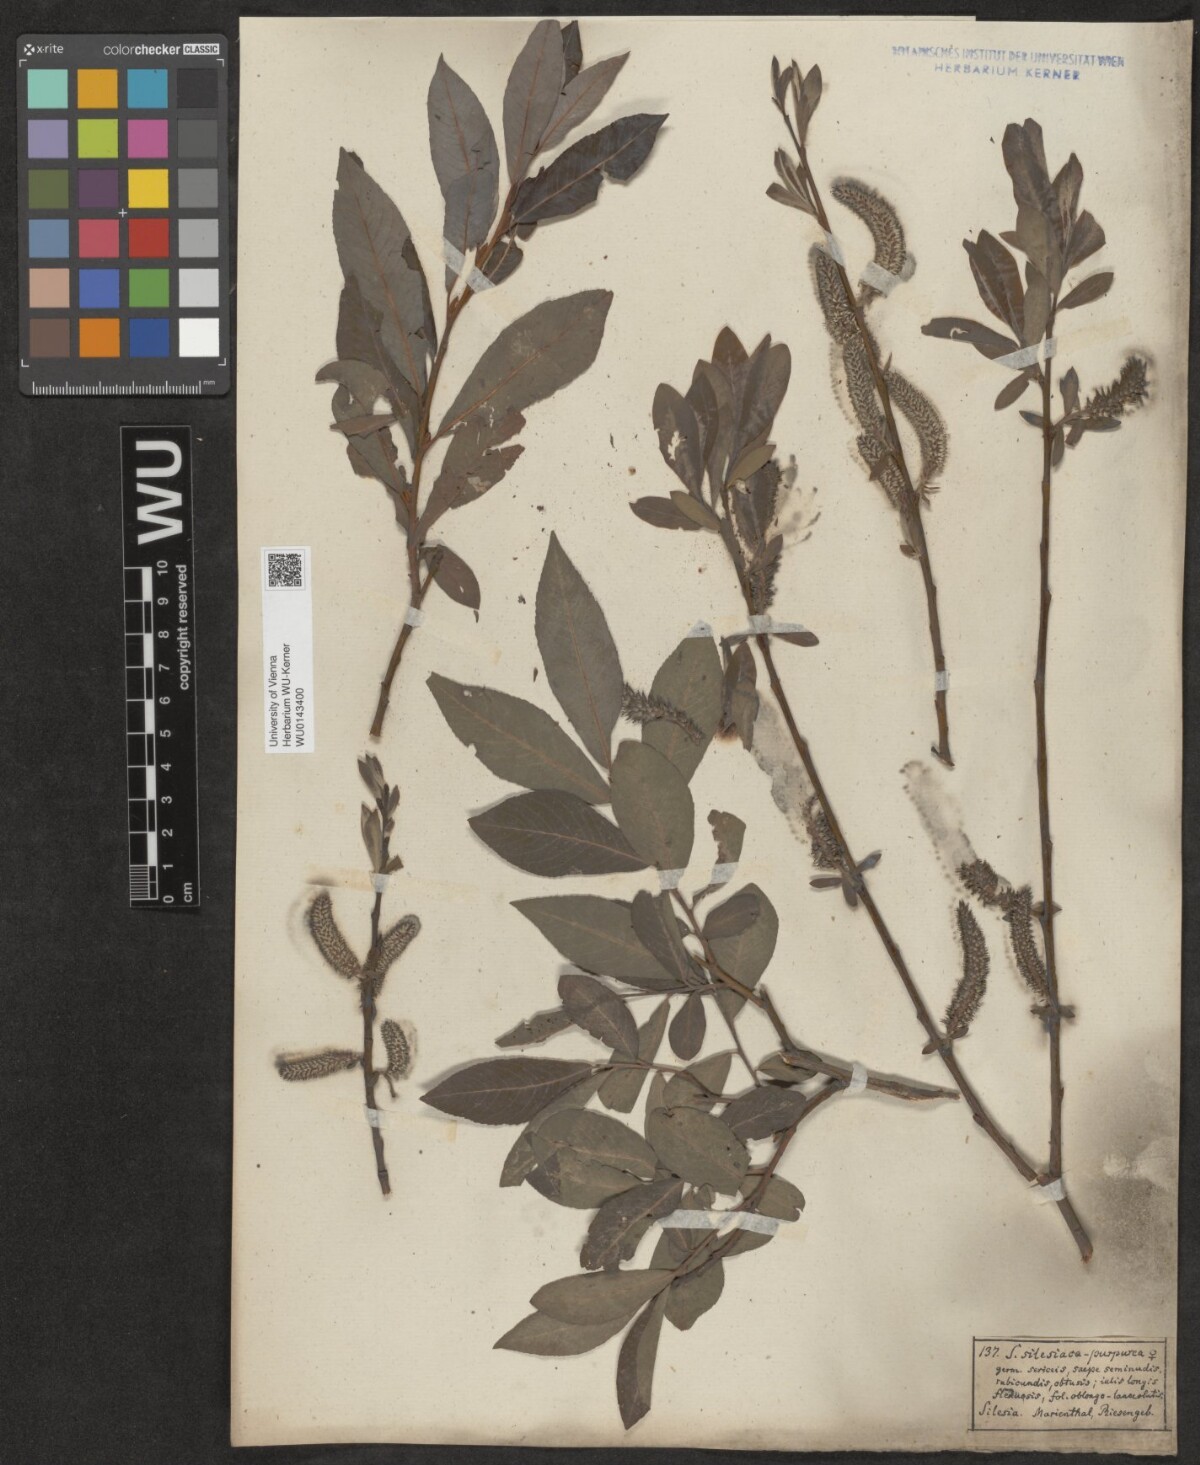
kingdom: Plantae
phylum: Tracheophyta
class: Magnoliopsida
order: Malpighiales
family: Salicaceae
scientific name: Salicaceae
